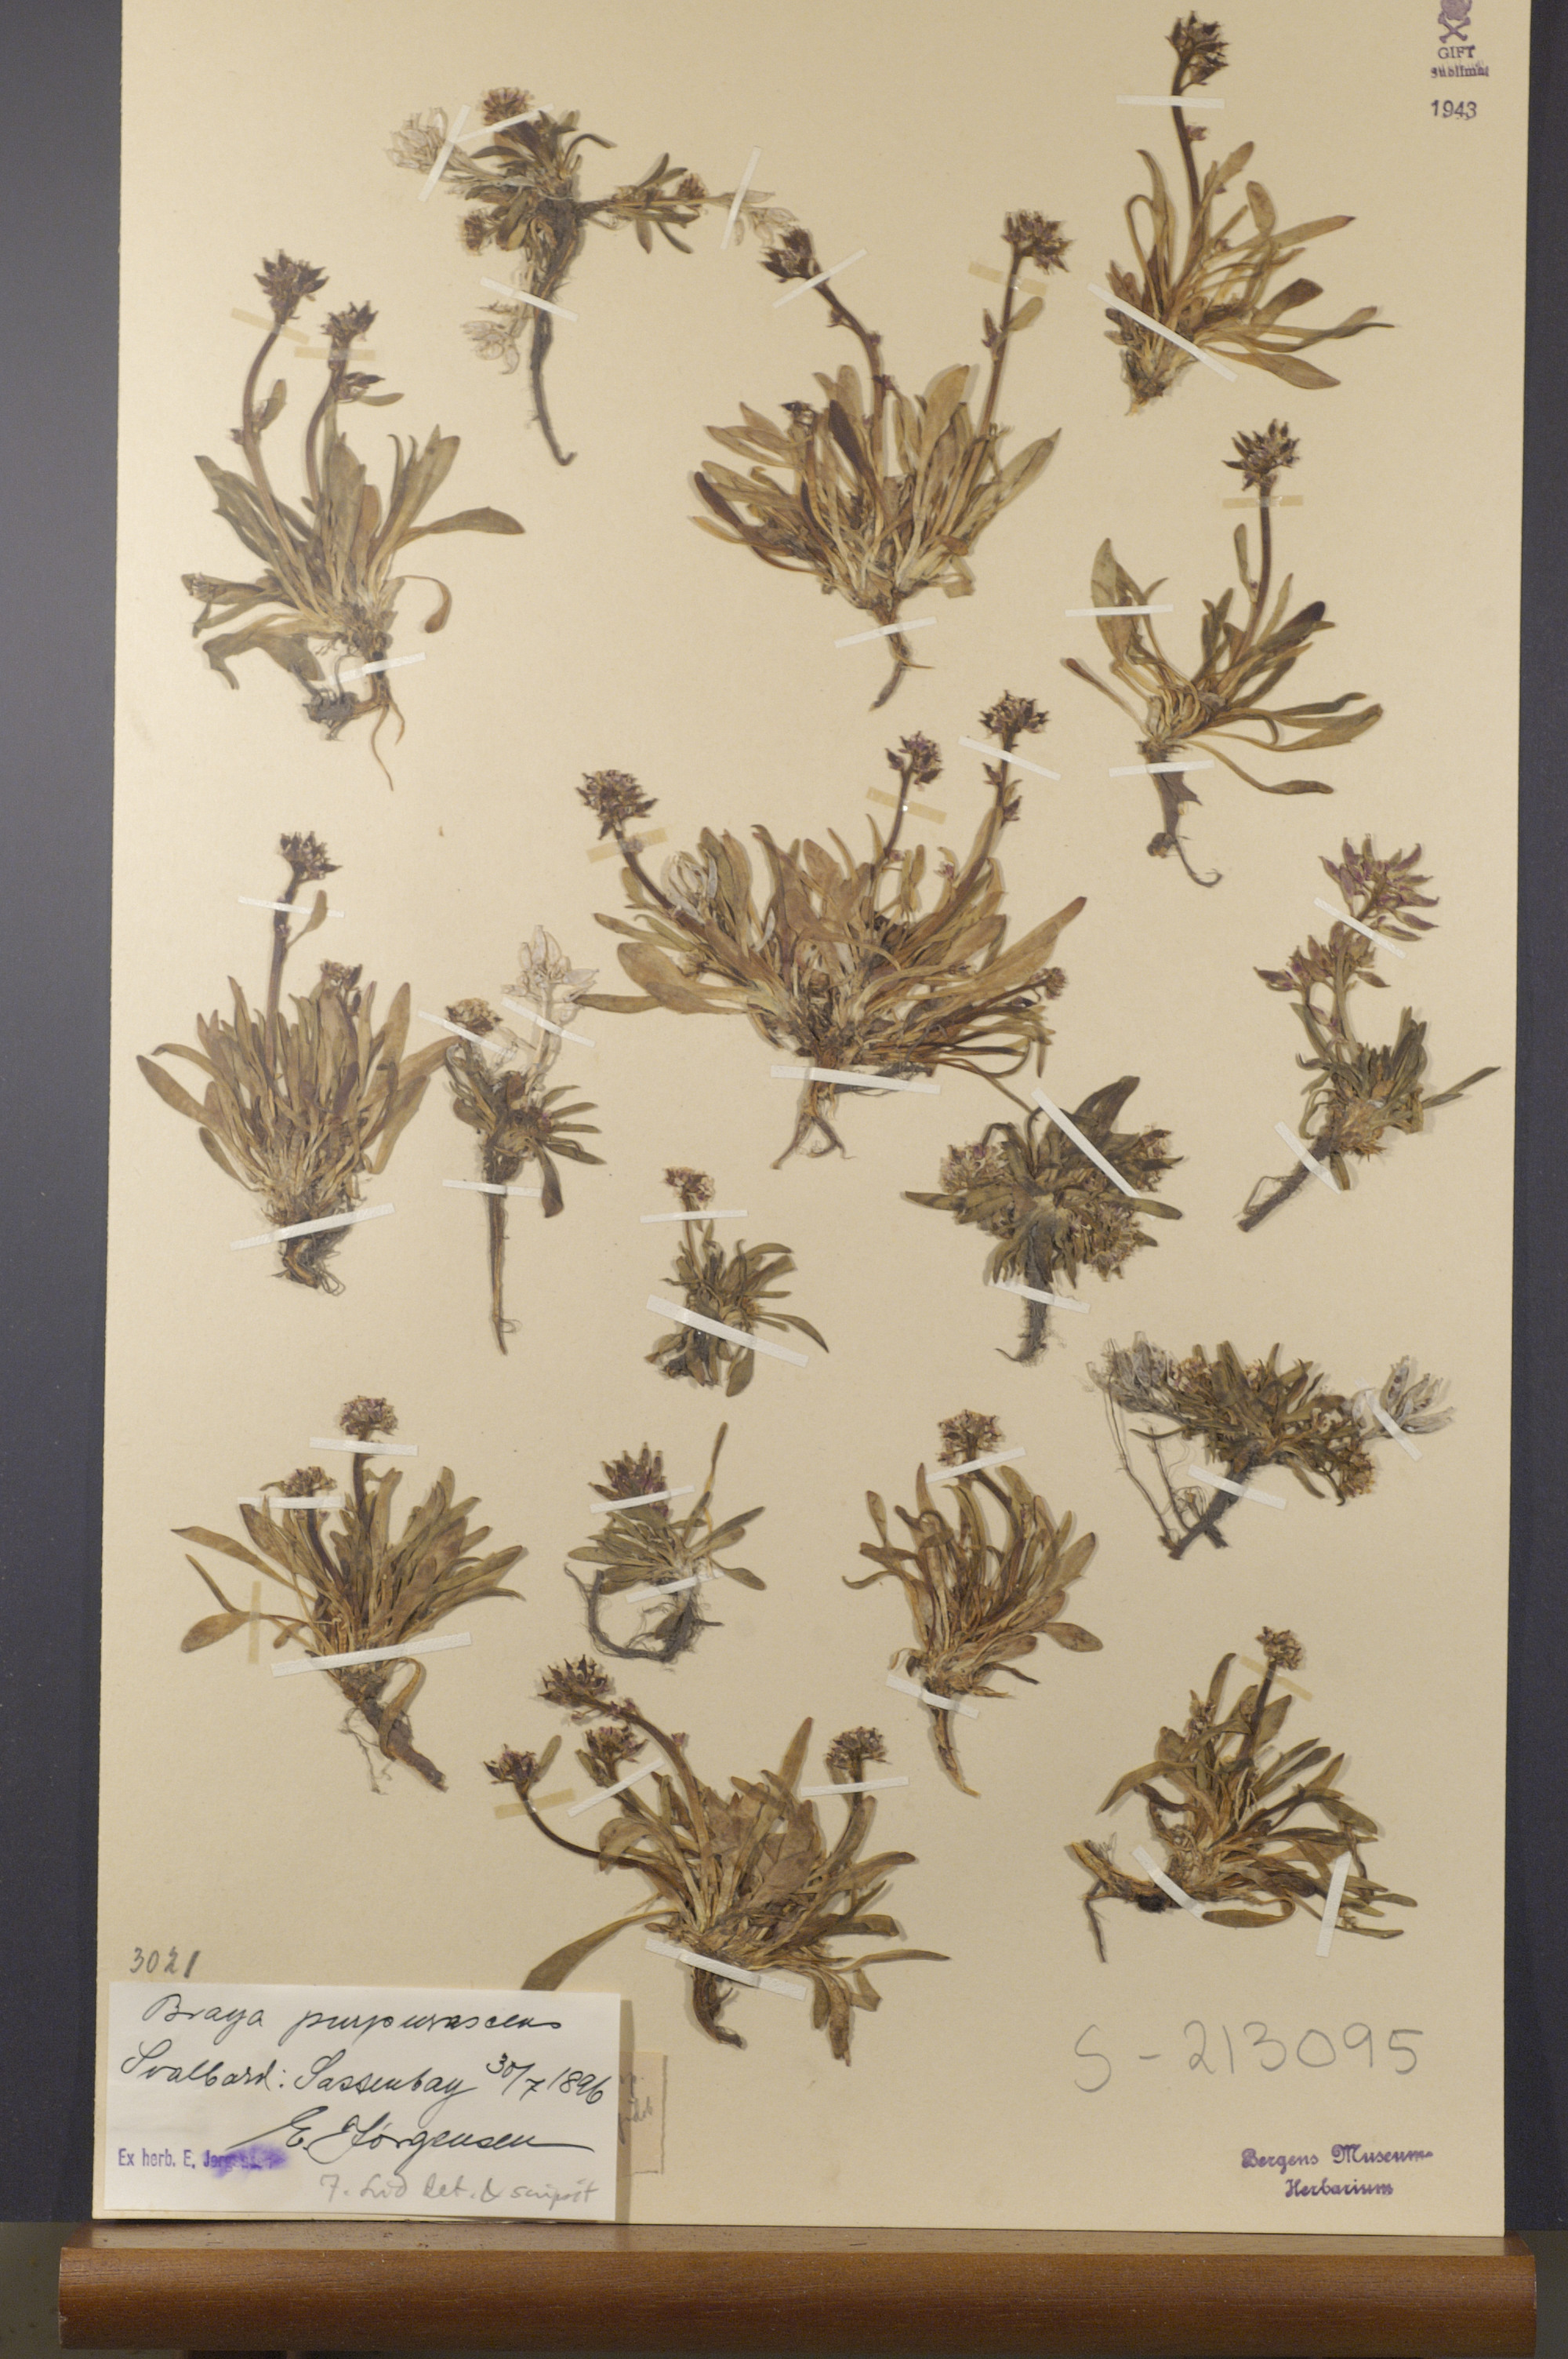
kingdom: Plantae
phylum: Tracheophyta
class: Magnoliopsida
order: Brassicales
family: Brassicaceae
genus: Braya
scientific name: Braya purpurascens
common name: Alpine braya
